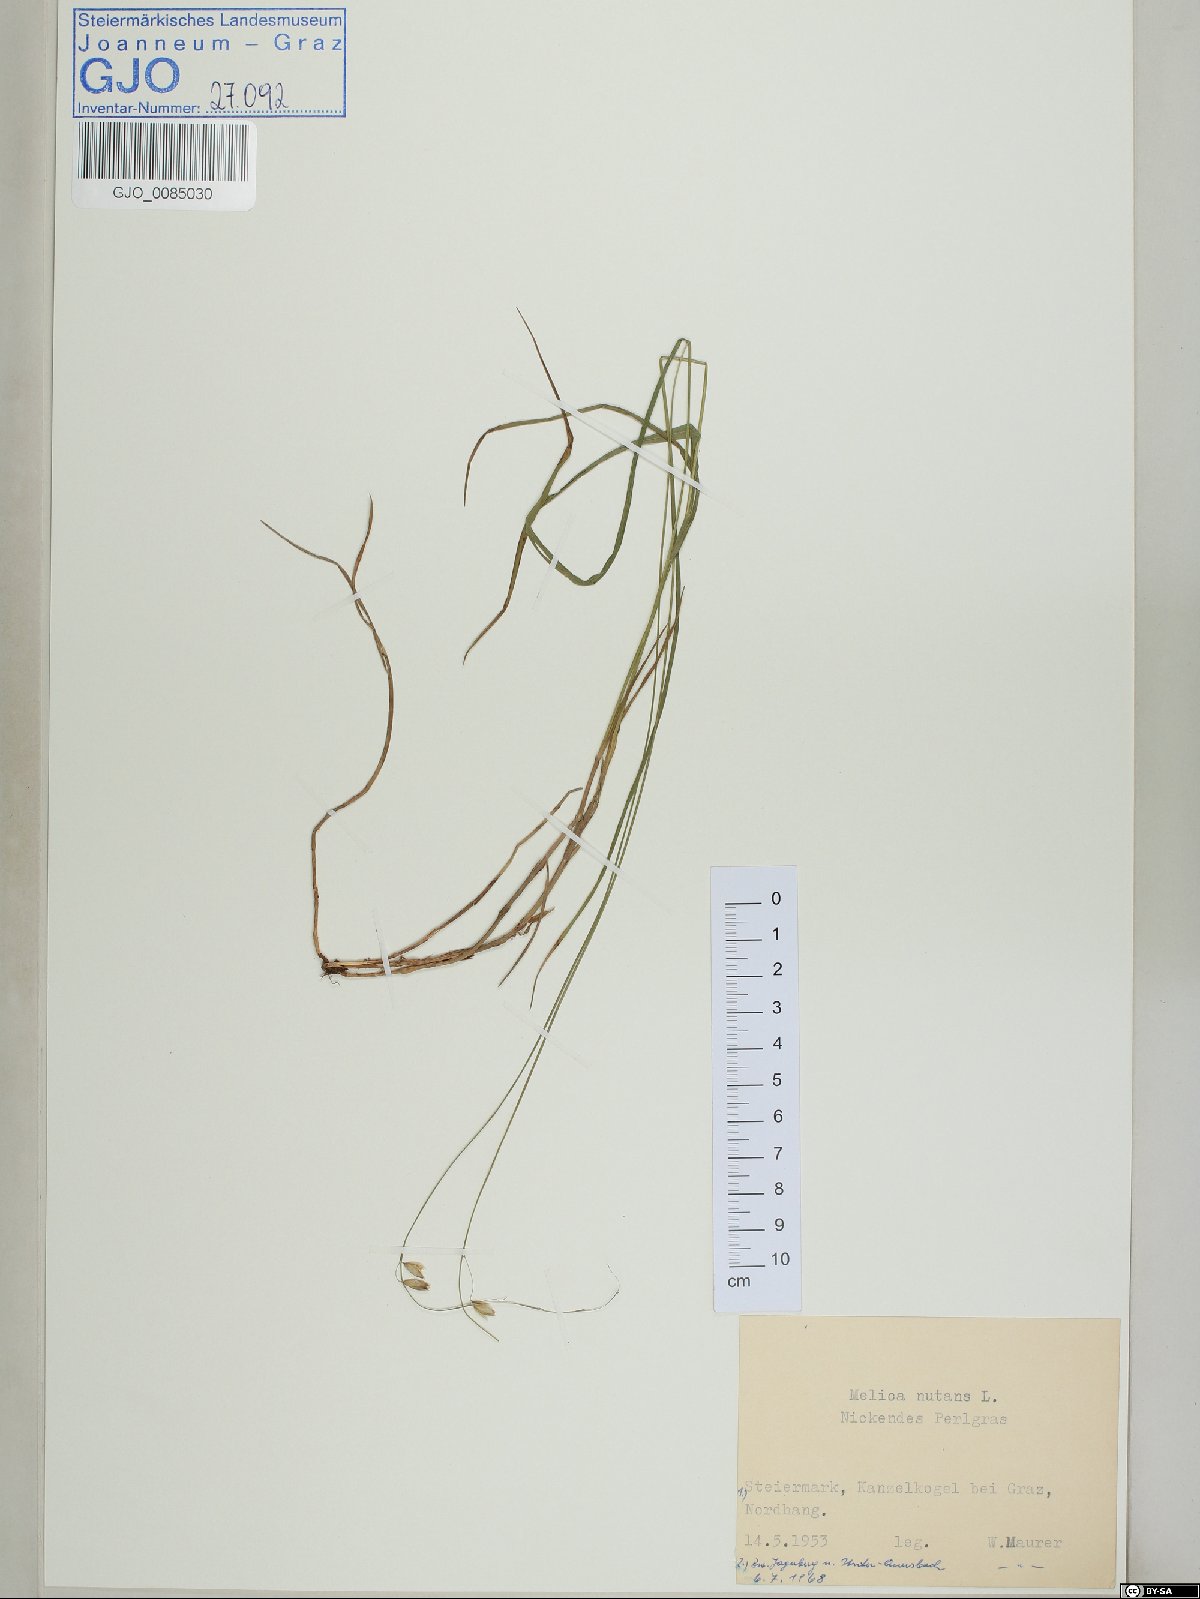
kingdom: Plantae
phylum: Tracheophyta
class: Liliopsida
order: Poales
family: Poaceae
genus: Melica
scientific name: Melica nutans
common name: Mountain melick
